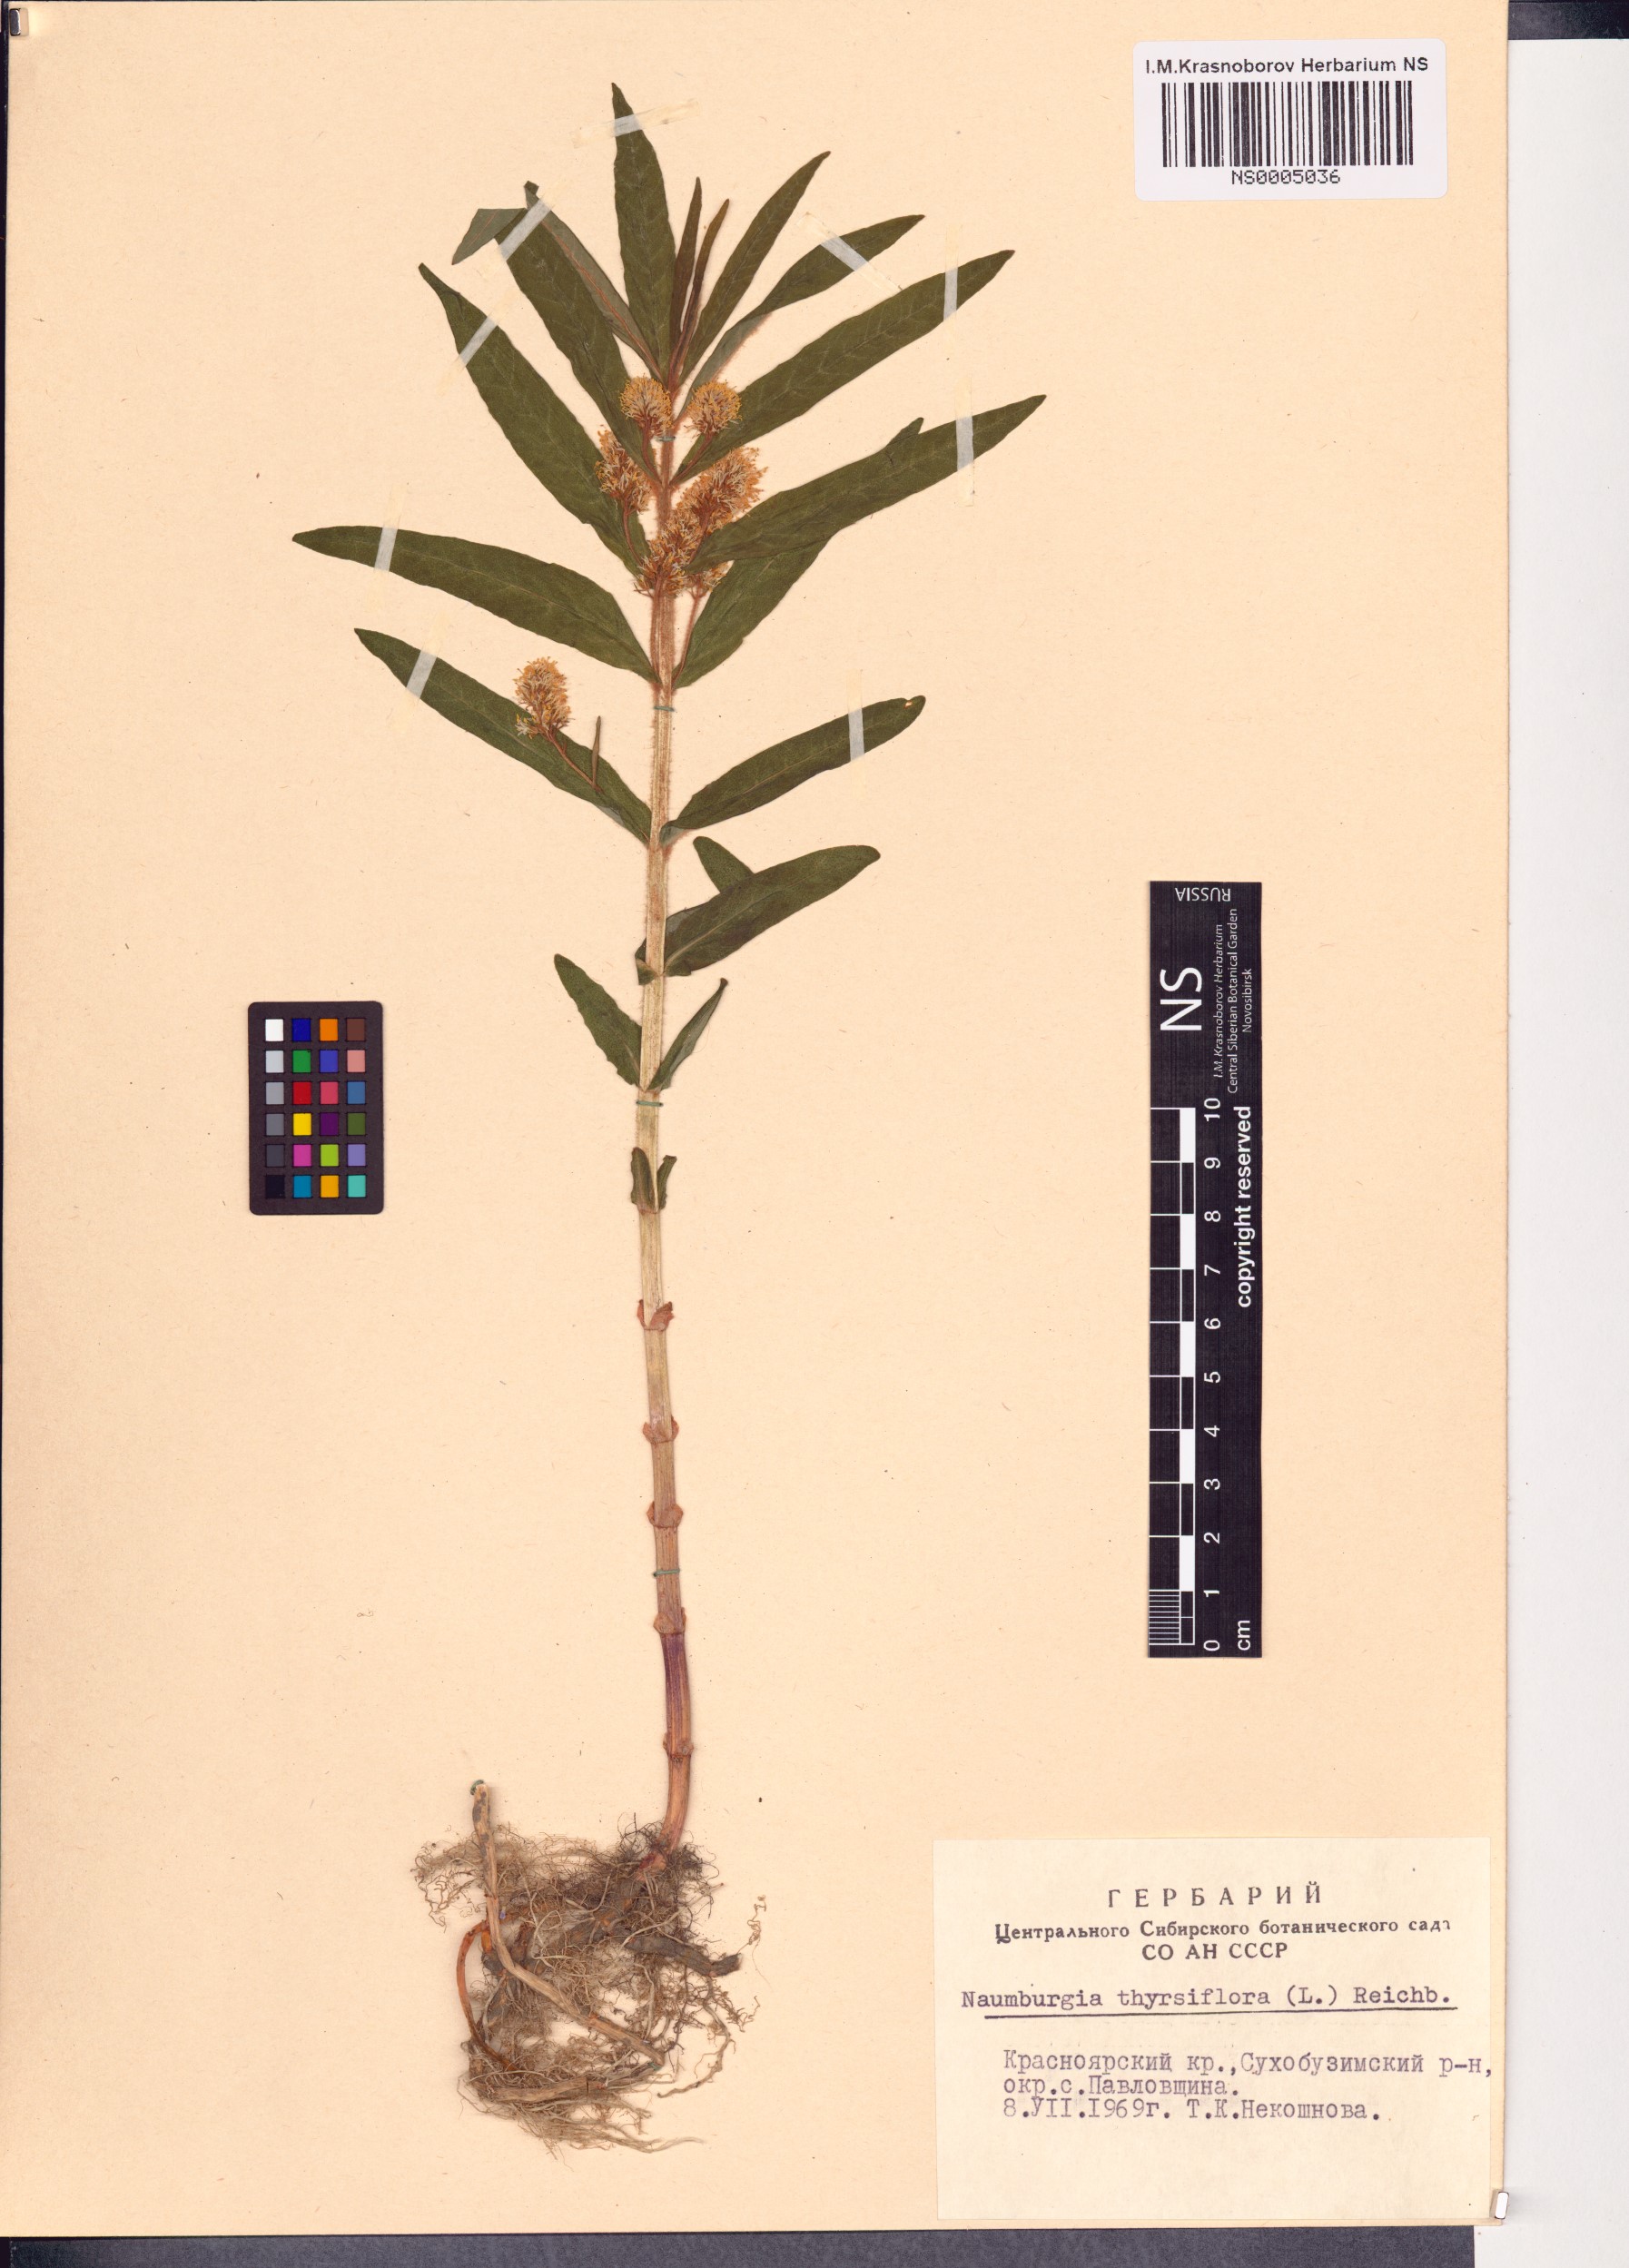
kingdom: Plantae
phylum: Tracheophyta
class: Magnoliopsida
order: Ericales
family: Primulaceae
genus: Lysimachia
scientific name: Lysimachia thyrsiflora
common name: Tufted loosestrife
